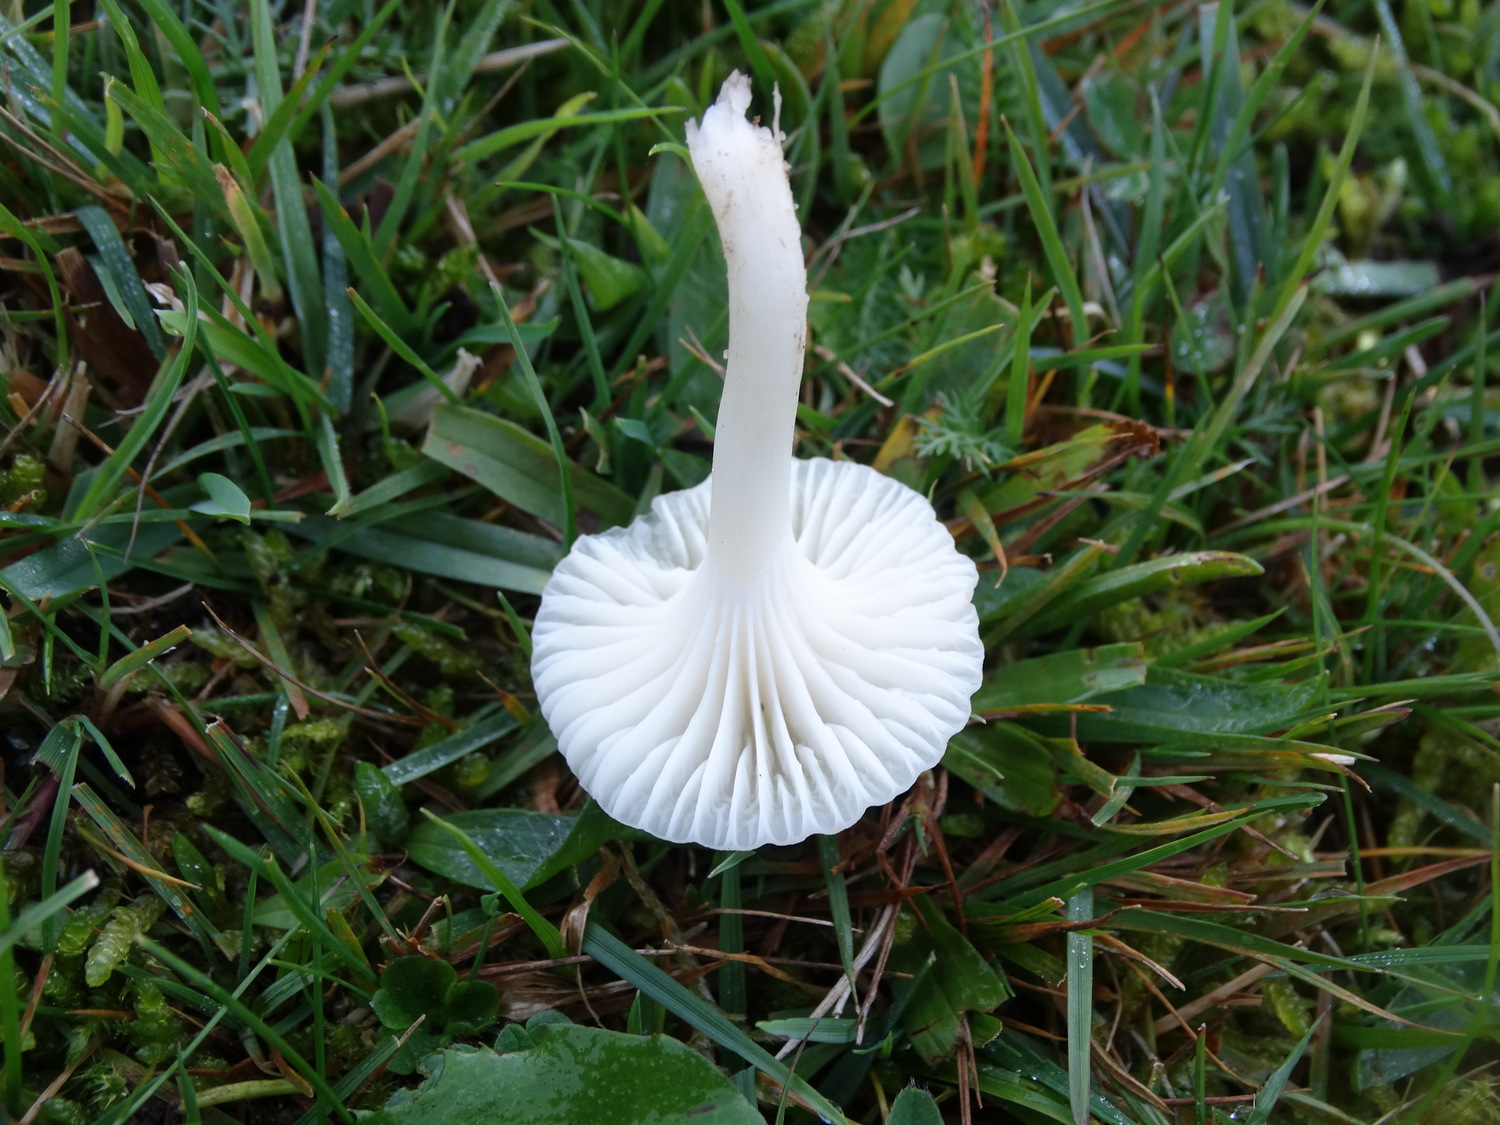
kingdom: Fungi
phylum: Basidiomycota
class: Agaricomycetes
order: Agaricales
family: Hygrophoraceae
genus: Cuphophyllus
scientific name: Cuphophyllus virgineus
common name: snehvid vokshat
